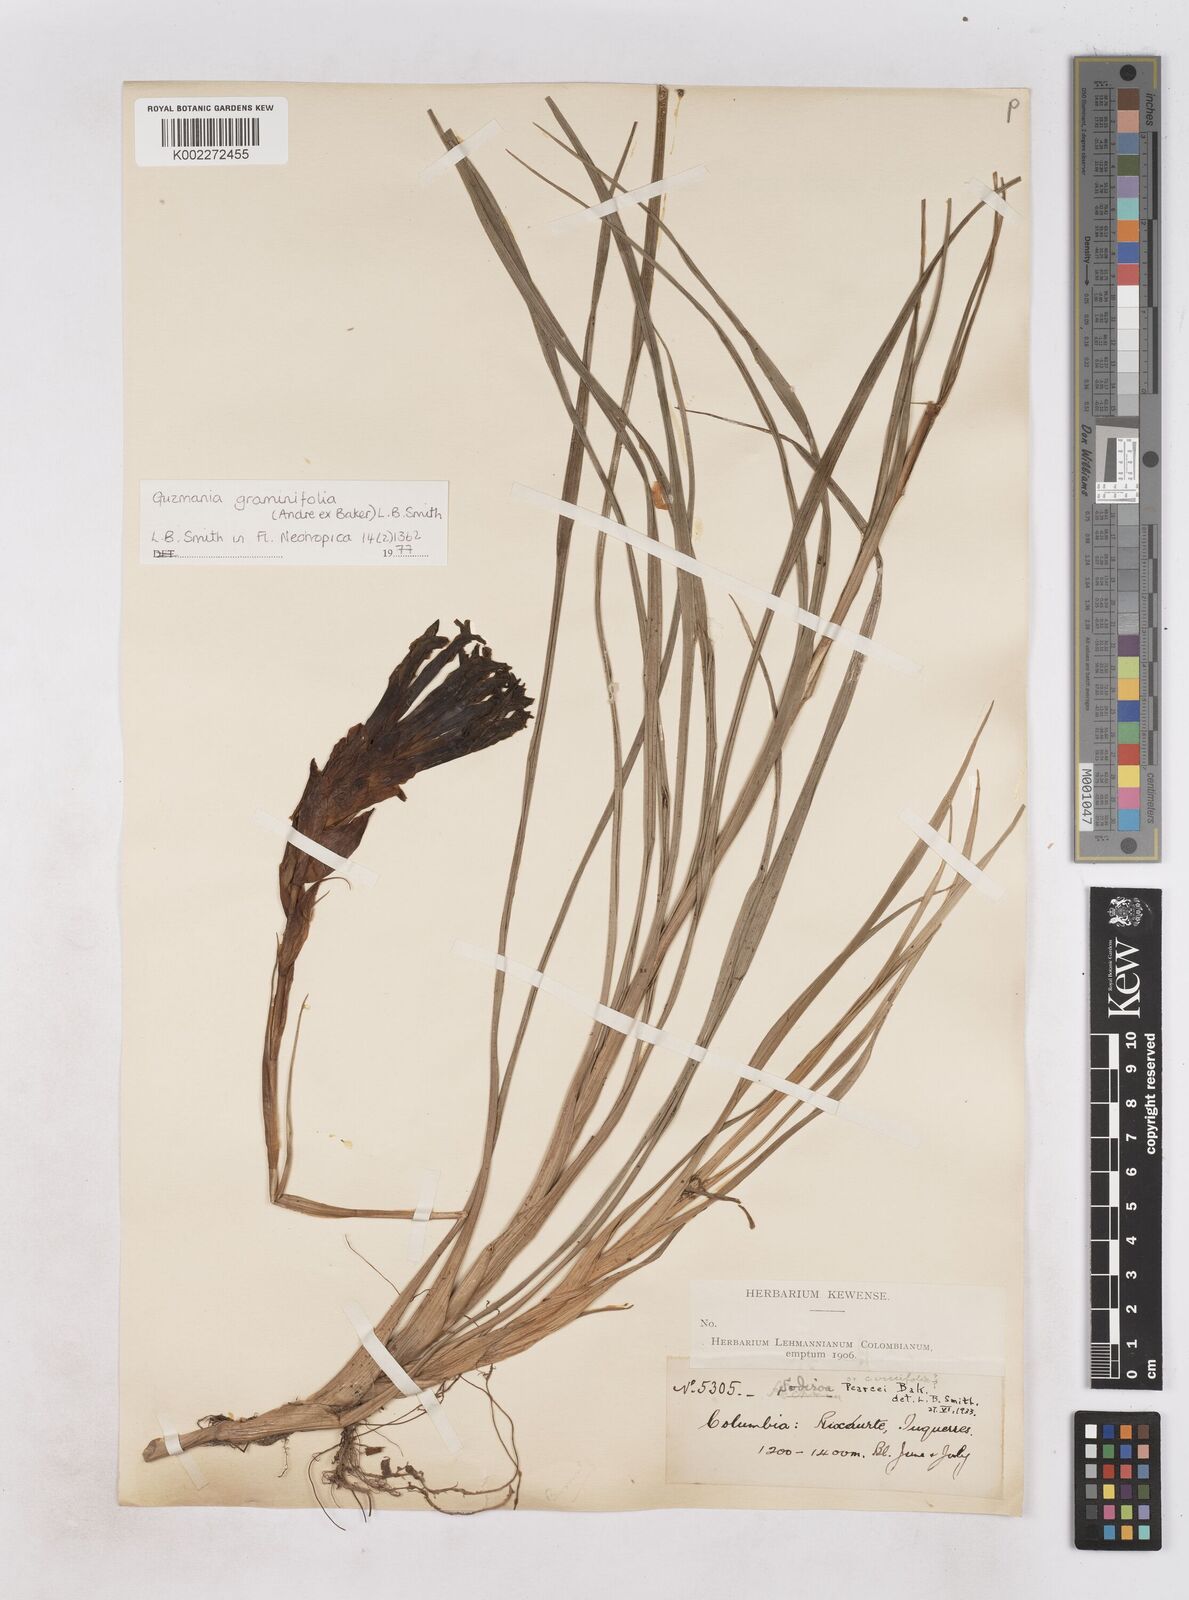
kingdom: Plantae
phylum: Tracheophyta
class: Liliopsida
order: Poales
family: Bromeliaceae
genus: Guzmania
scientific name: Guzmania graminifolia
